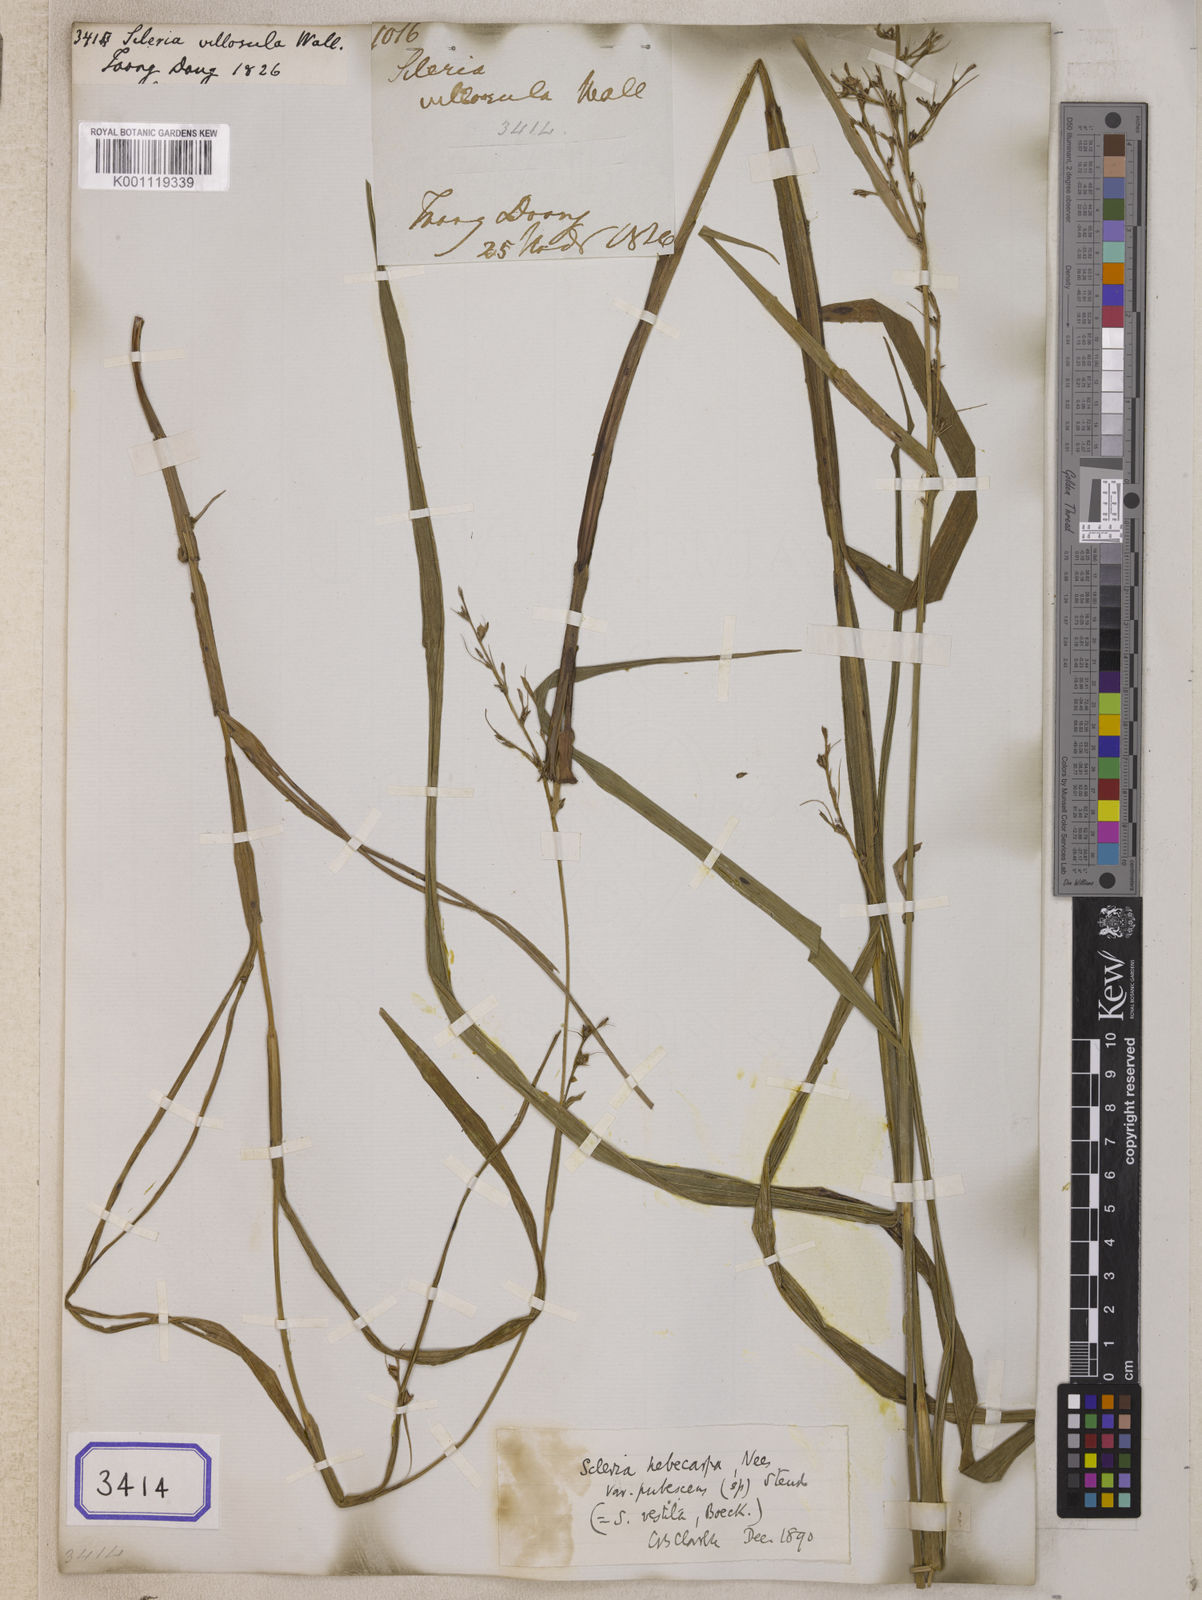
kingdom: Plantae
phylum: Tracheophyta
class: Liliopsida
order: Poales
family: Cyperaceae
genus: Scleria
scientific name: Scleria levis
